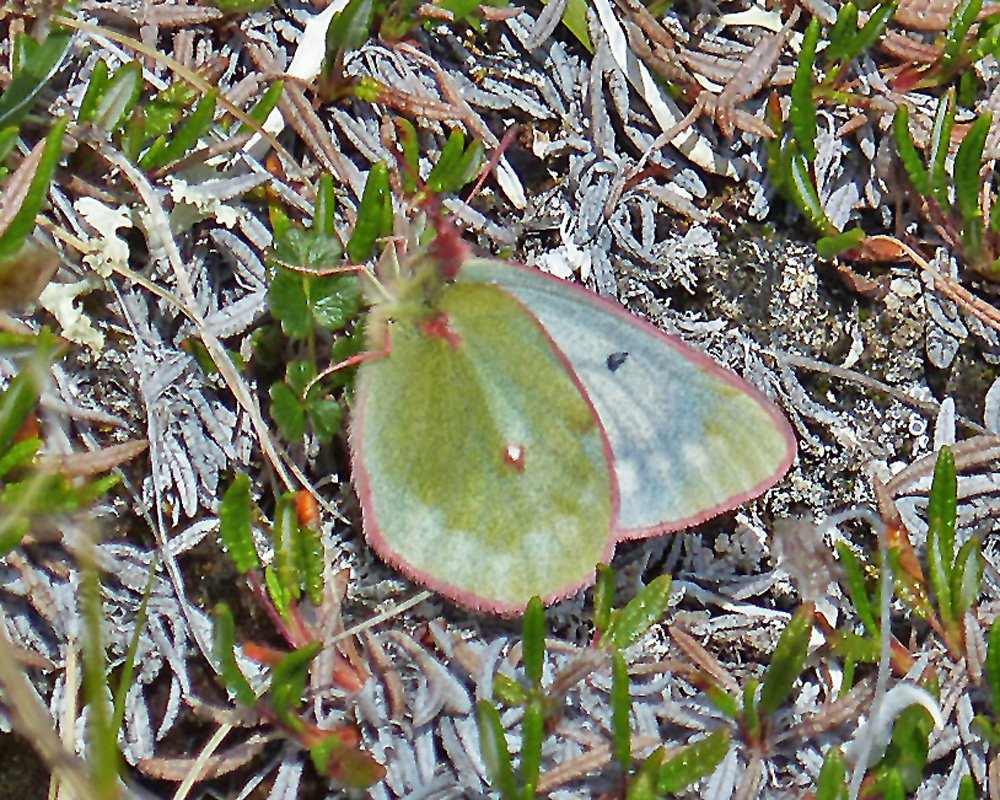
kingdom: Animalia
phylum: Arthropoda
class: Insecta
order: Lepidoptera
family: Pieridae
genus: Colias
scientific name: Colias nastes
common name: Labrador Sulphur
